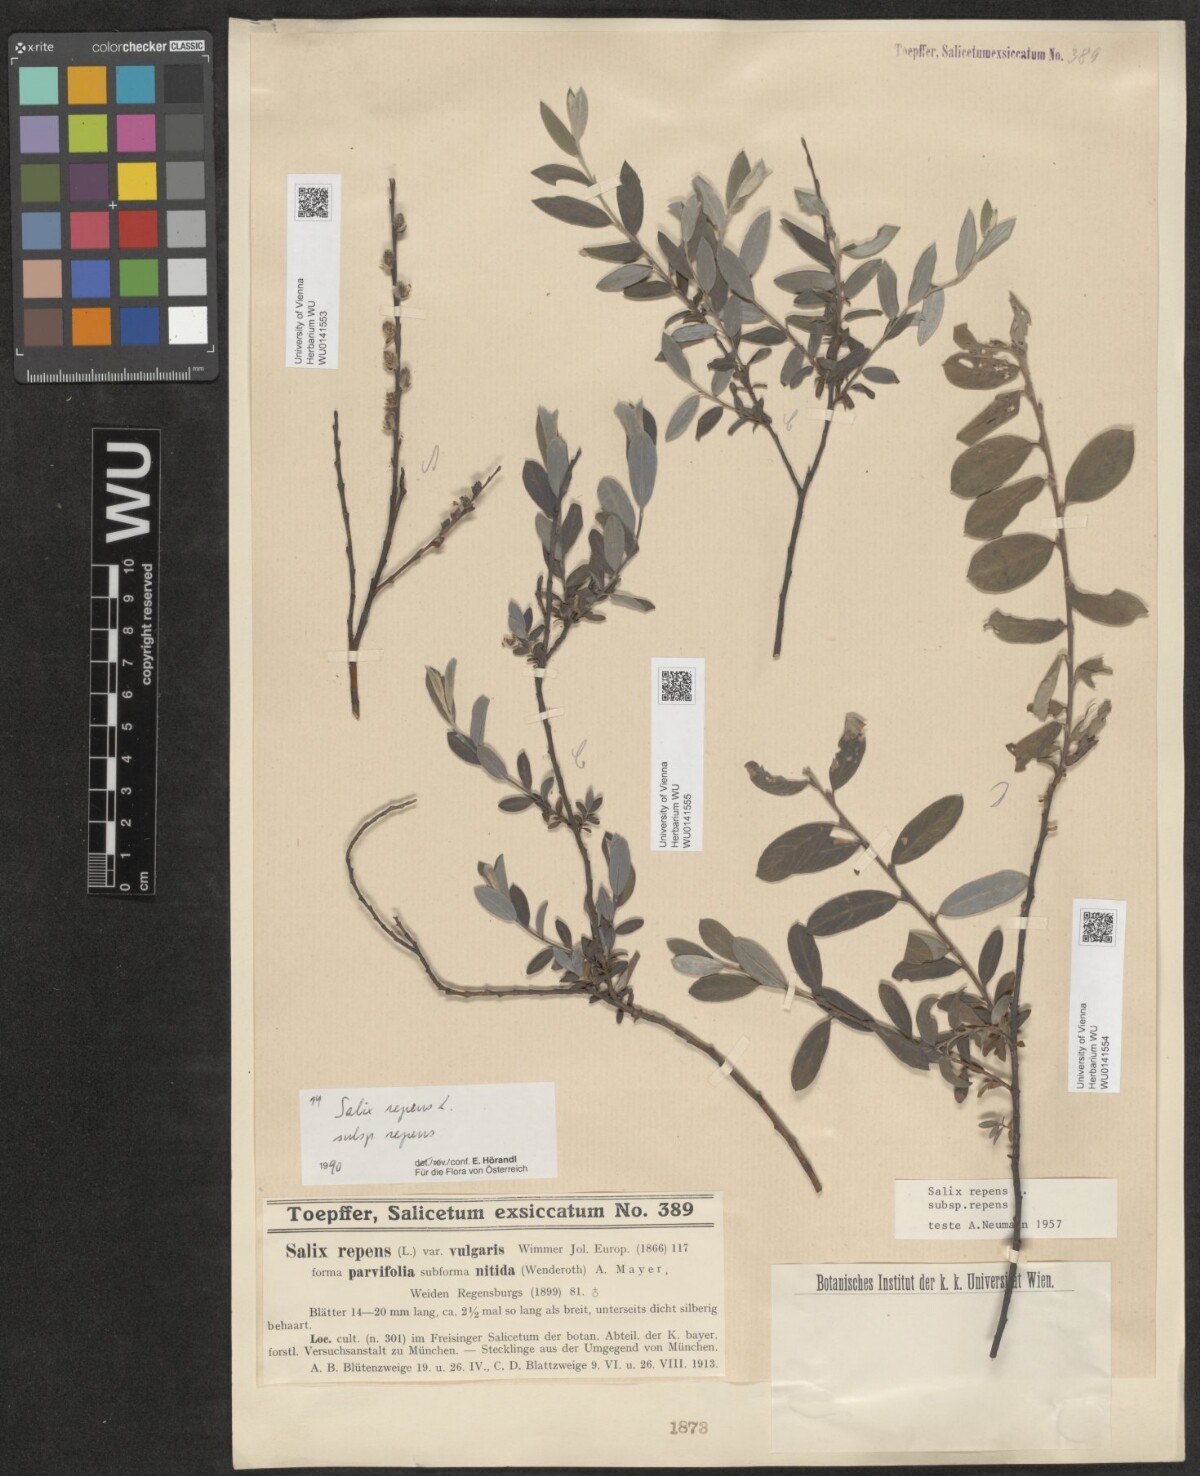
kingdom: Plantae
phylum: Tracheophyta
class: Magnoliopsida
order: Malpighiales
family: Salicaceae
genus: Salix
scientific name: Salix repens
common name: Creeping willow
